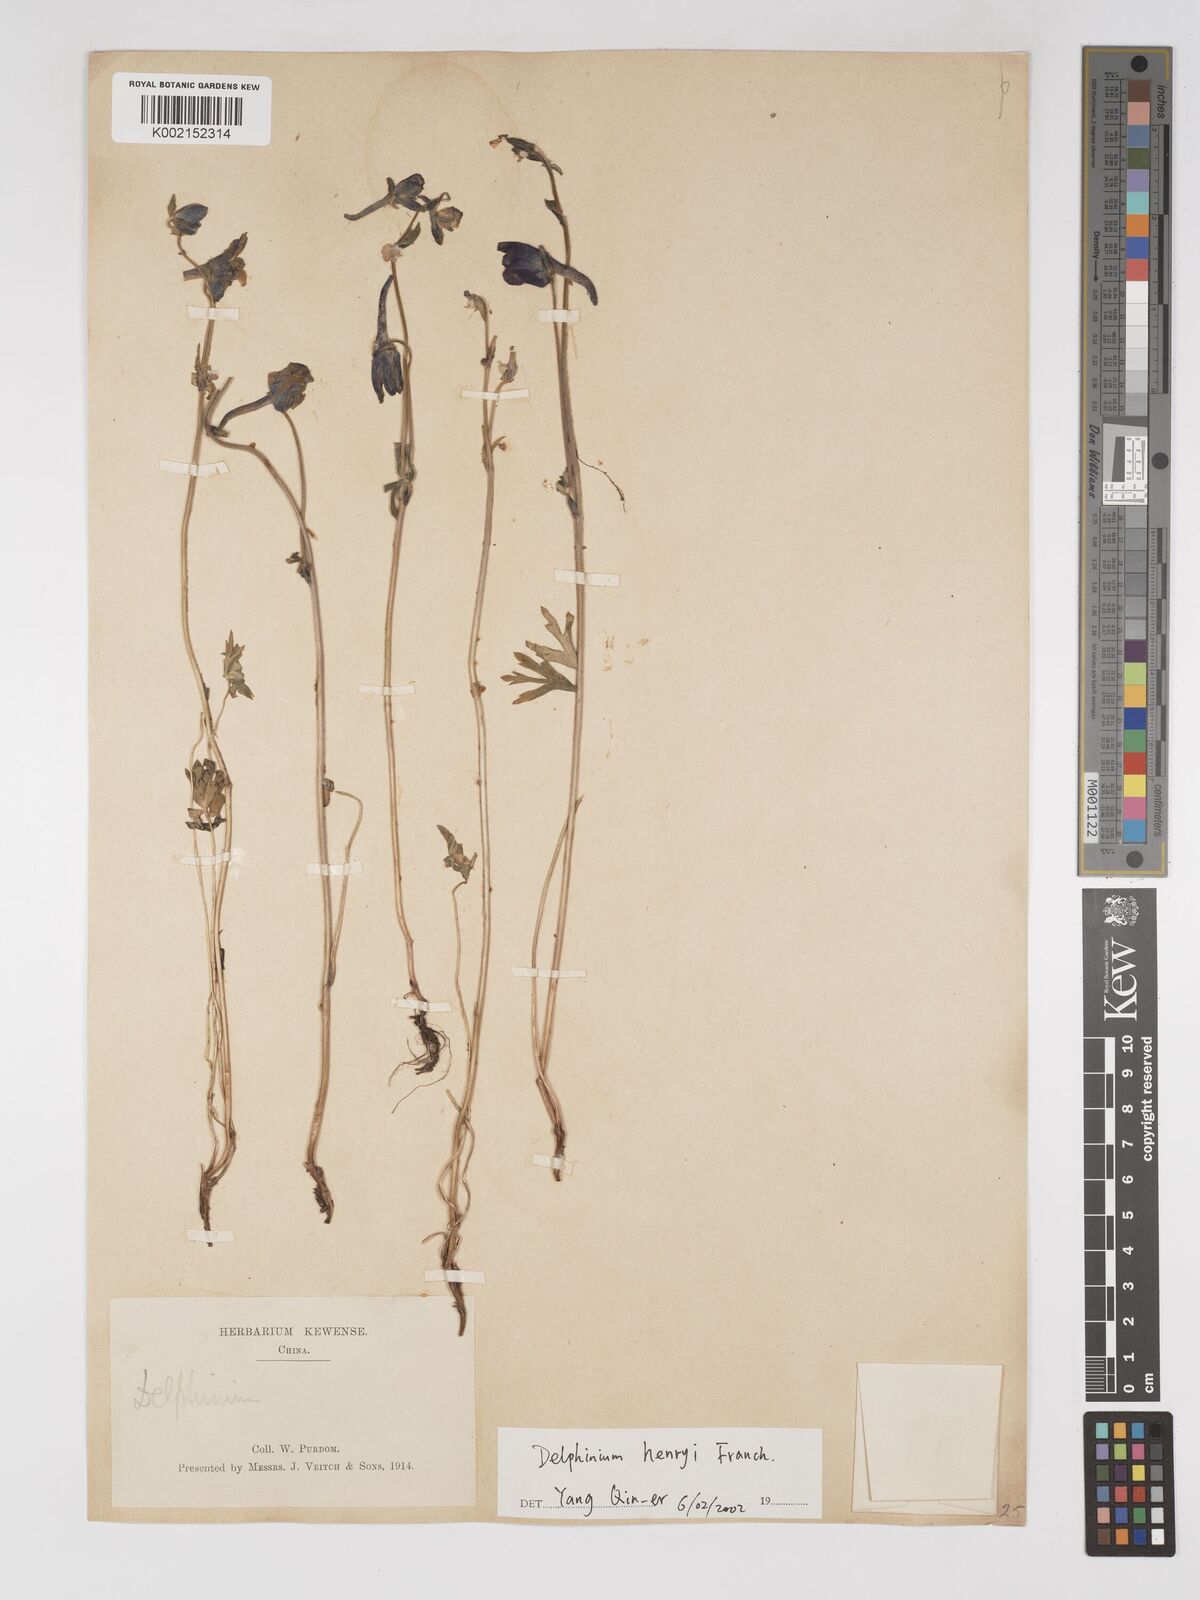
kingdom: Plantae
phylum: Tracheophyta
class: Magnoliopsida
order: Ranunculales
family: Ranunculaceae
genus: Delphinium
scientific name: Delphinium henryi
